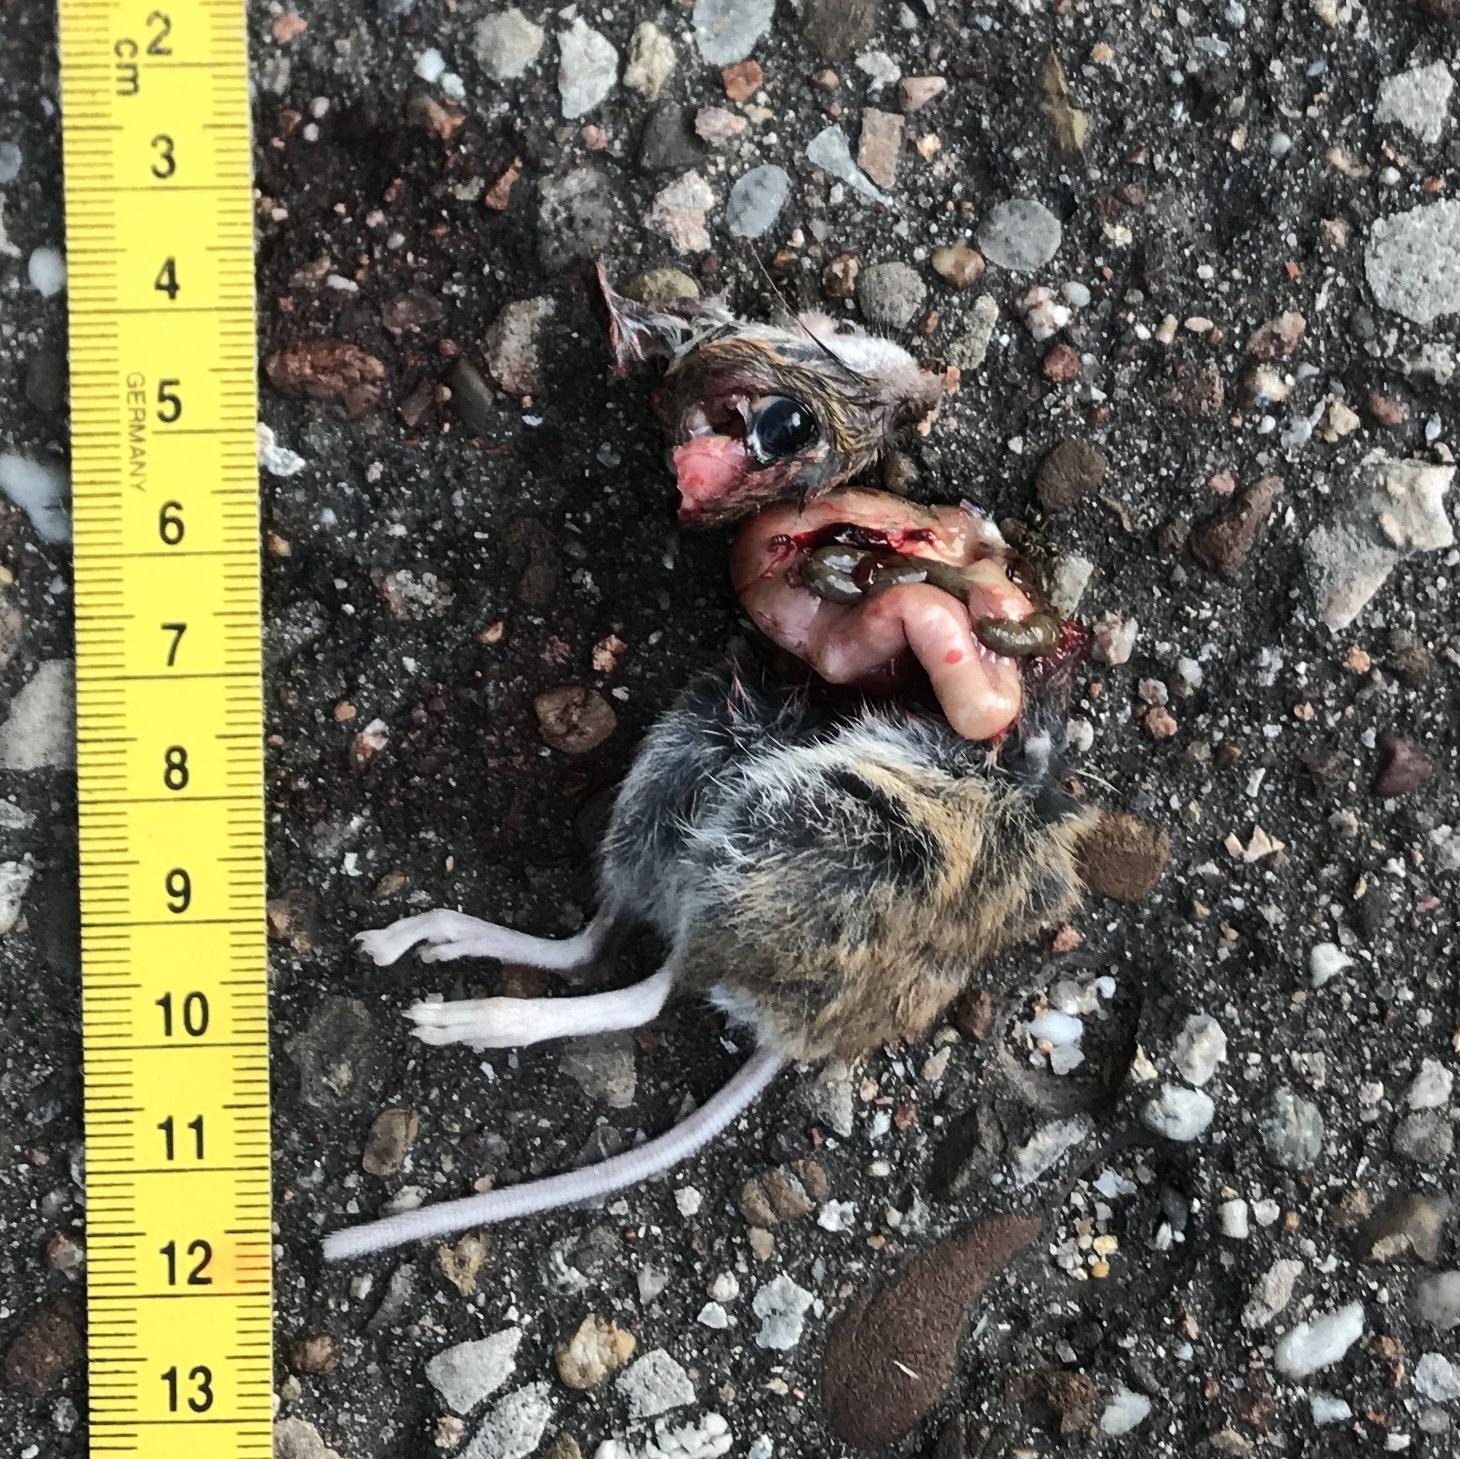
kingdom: Animalia
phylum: Chordata
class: Mammalia
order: Rodentia
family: Muridae
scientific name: Muridae
